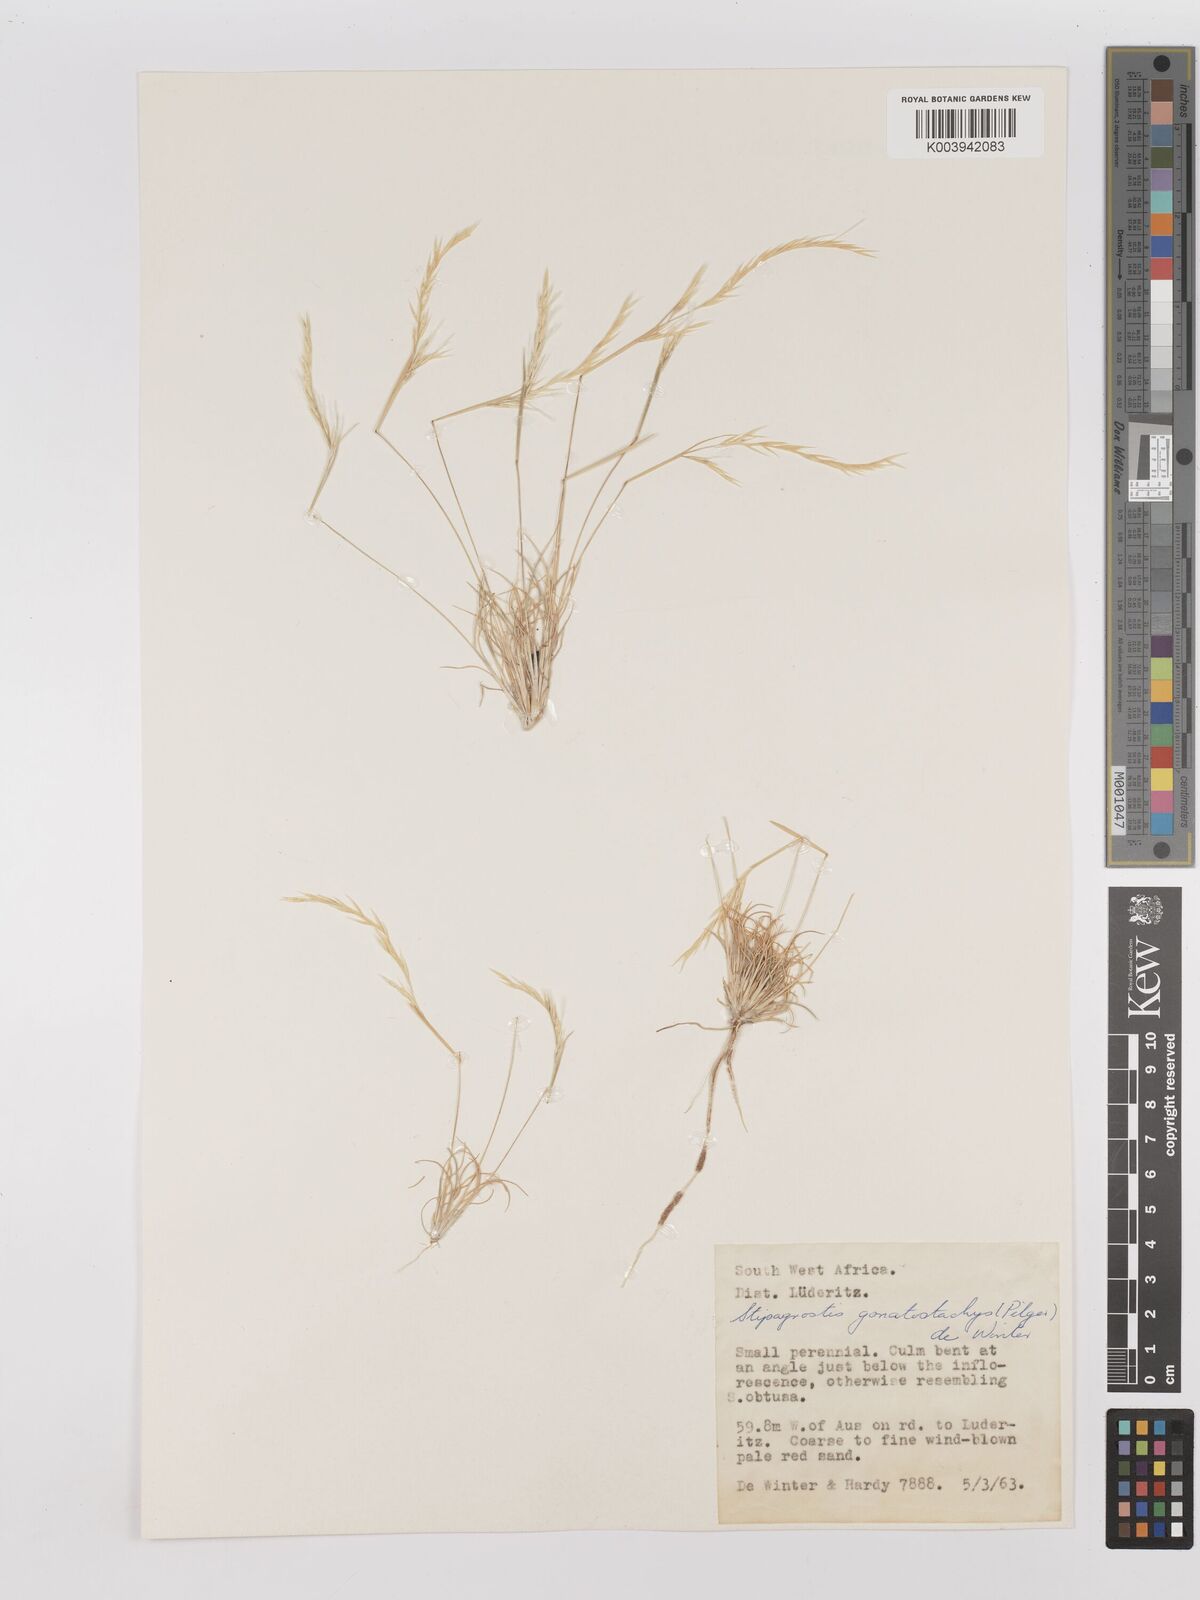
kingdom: Plantae
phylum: Tracheophyta
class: Liliopsida
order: Poales
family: Poaceae
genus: Stipagrostis
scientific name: Stipagrostis gonatostachys
